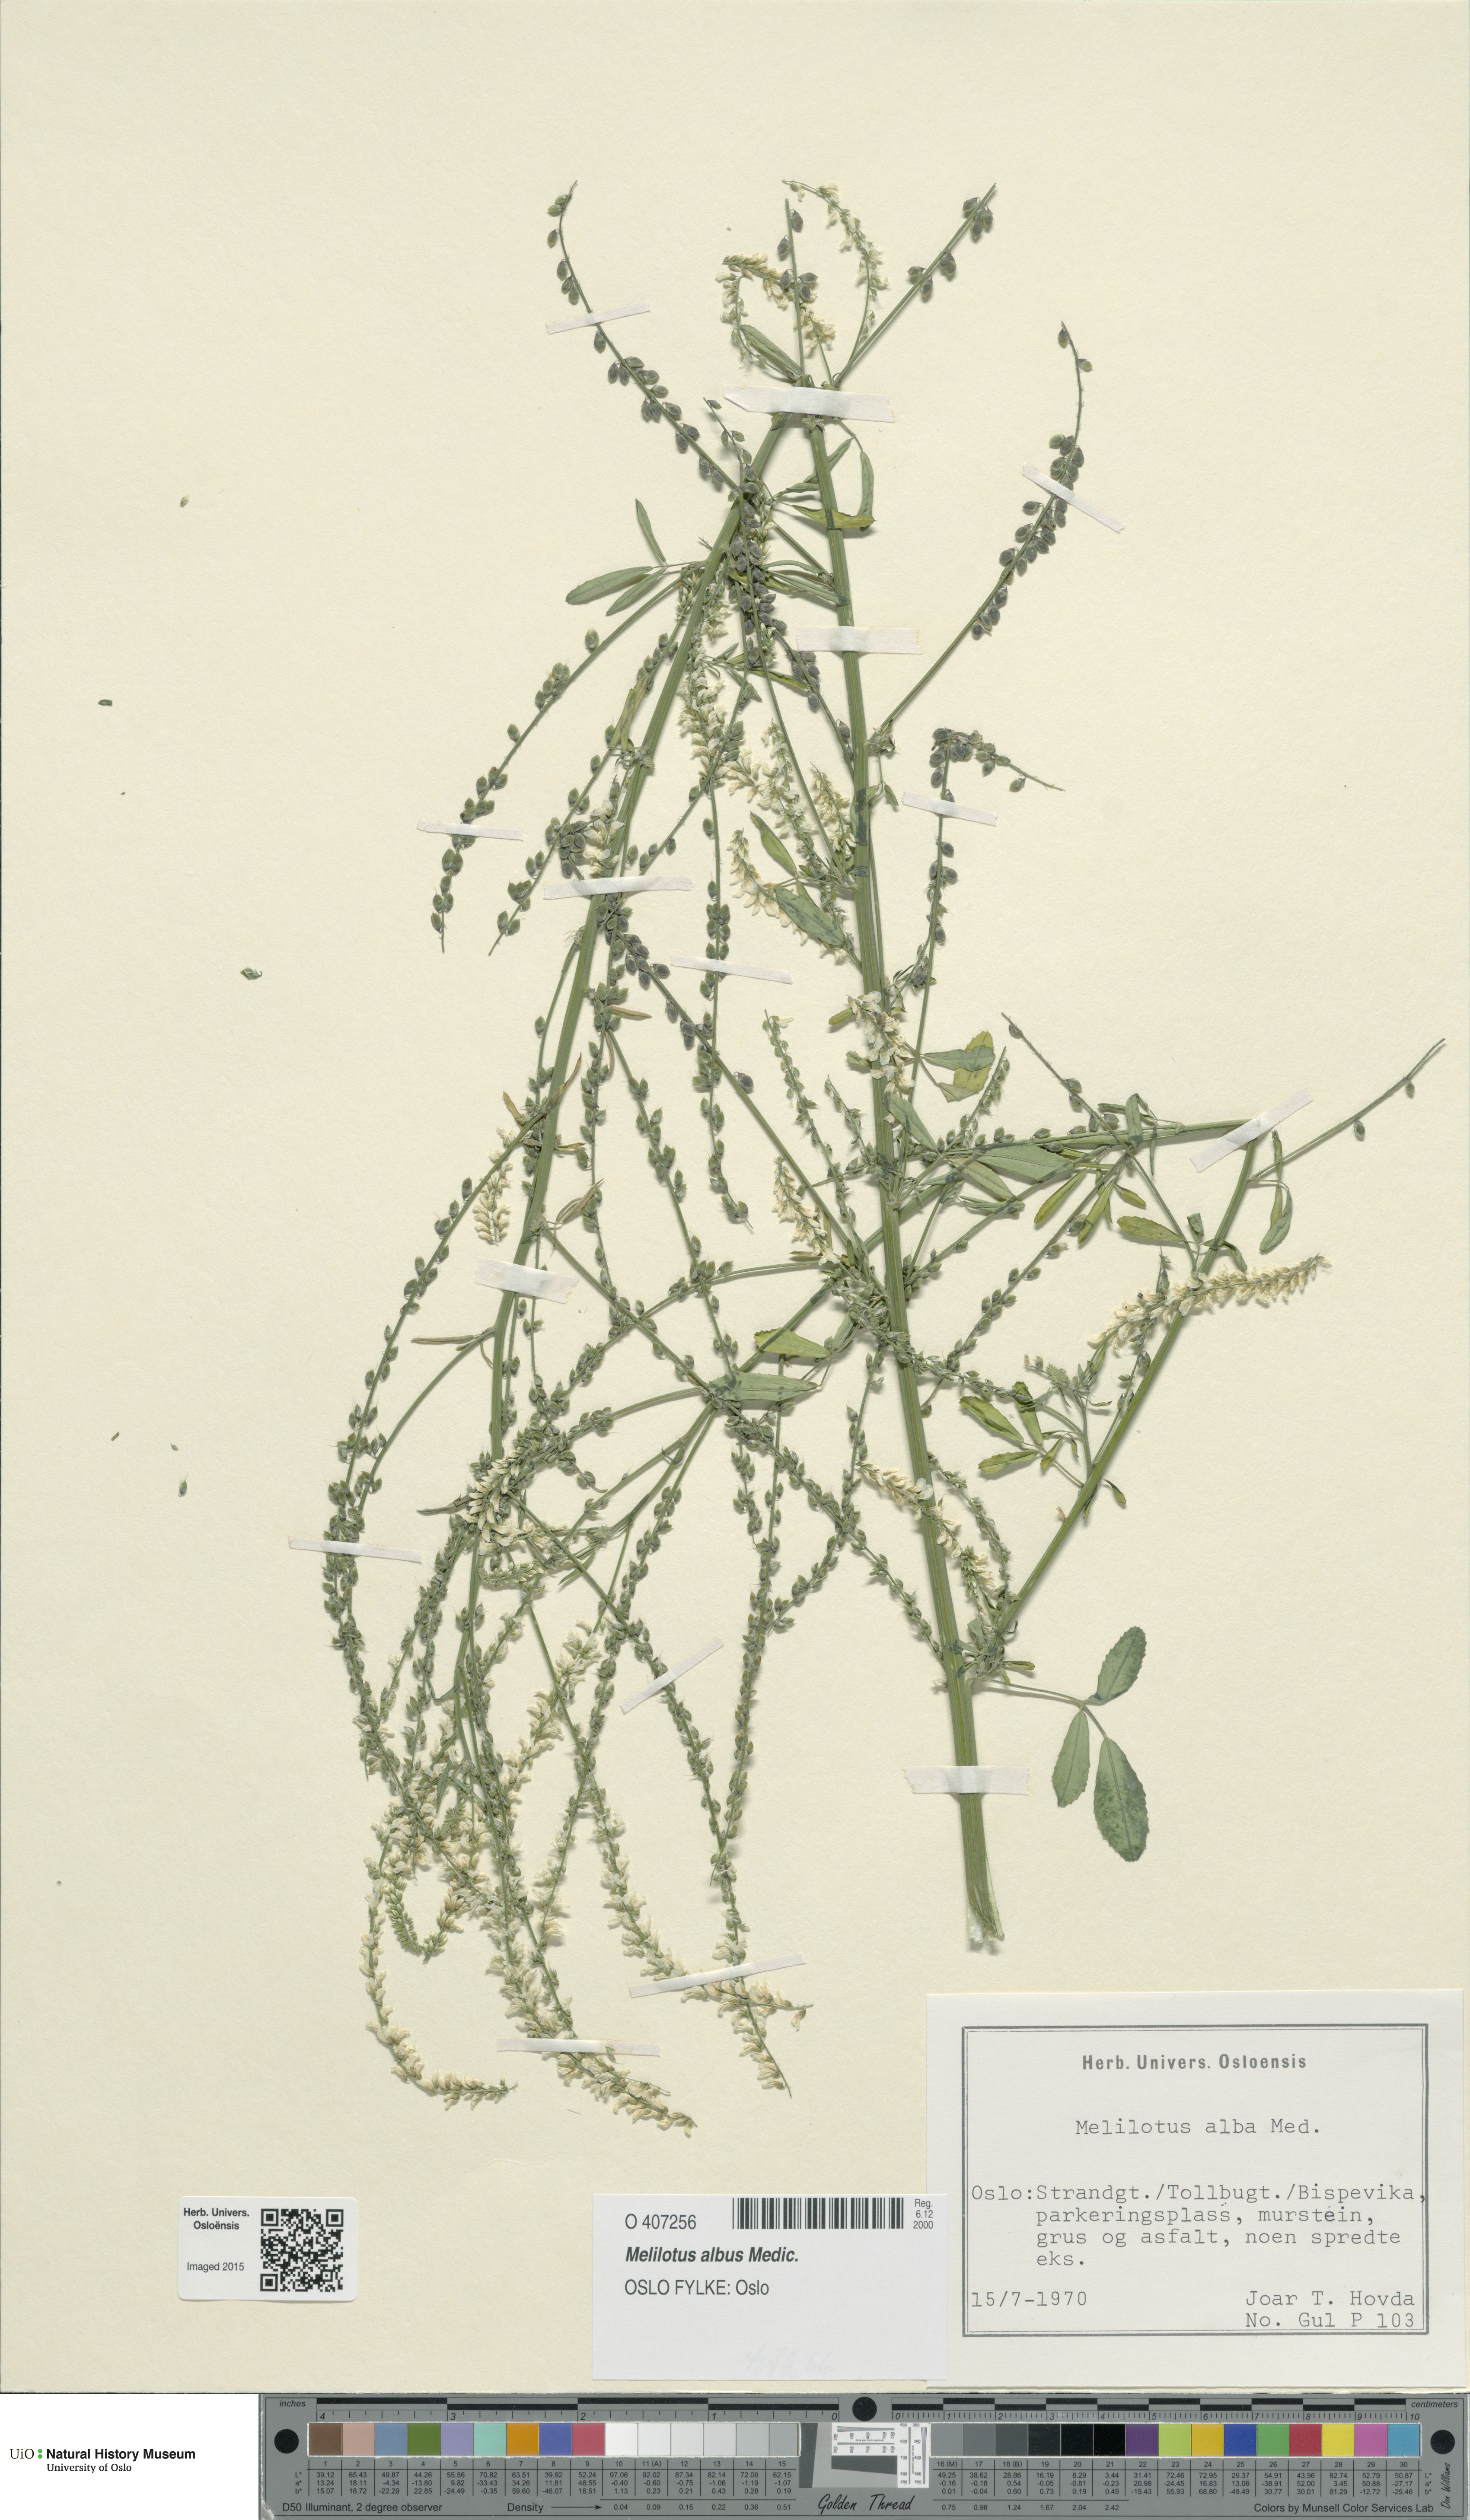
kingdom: Plantae
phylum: Tracheophyta
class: Magnoliopsida
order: Fabales
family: Fabaceae
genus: Melilotus
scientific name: Melilotus albus
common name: White melilot
